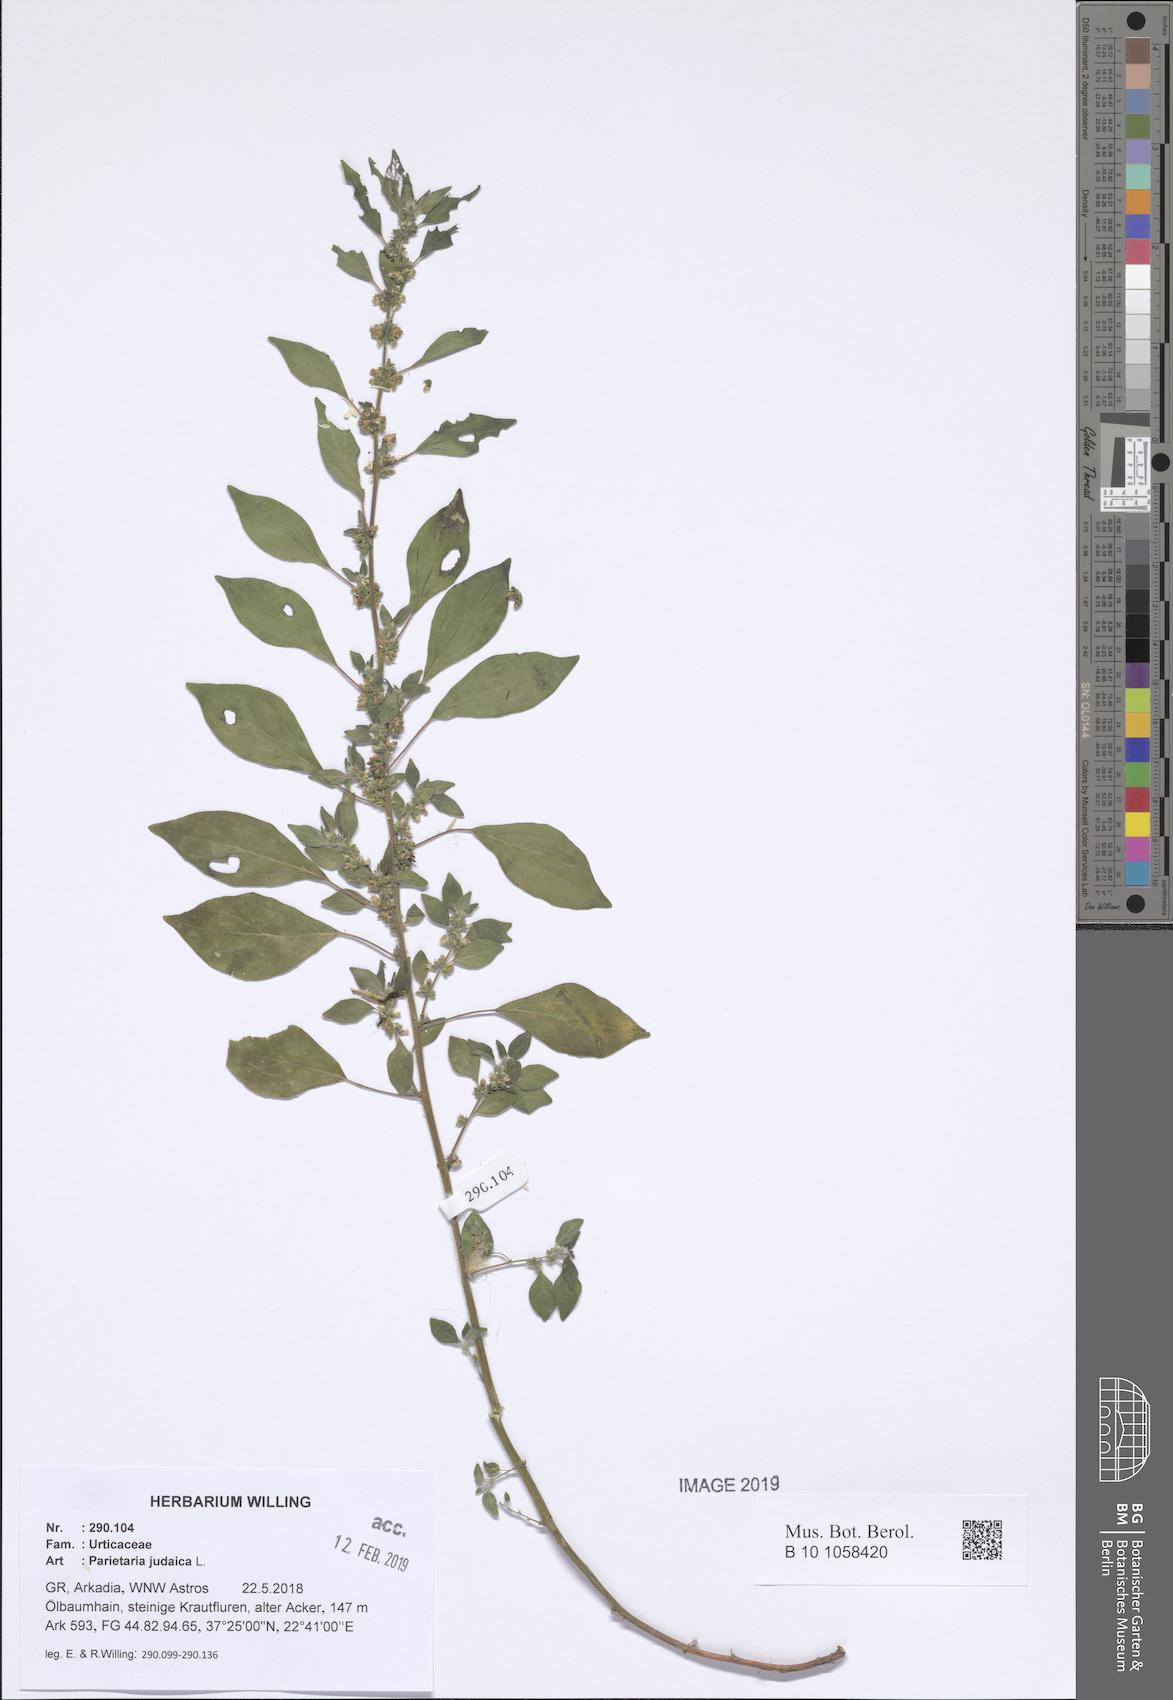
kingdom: Plantae
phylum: Tracheophyta
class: Magnoliopsida
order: Rosales
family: Urticaceae
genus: Parietaria
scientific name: Parietaria judaica
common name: Pellitory-of-the-wall
